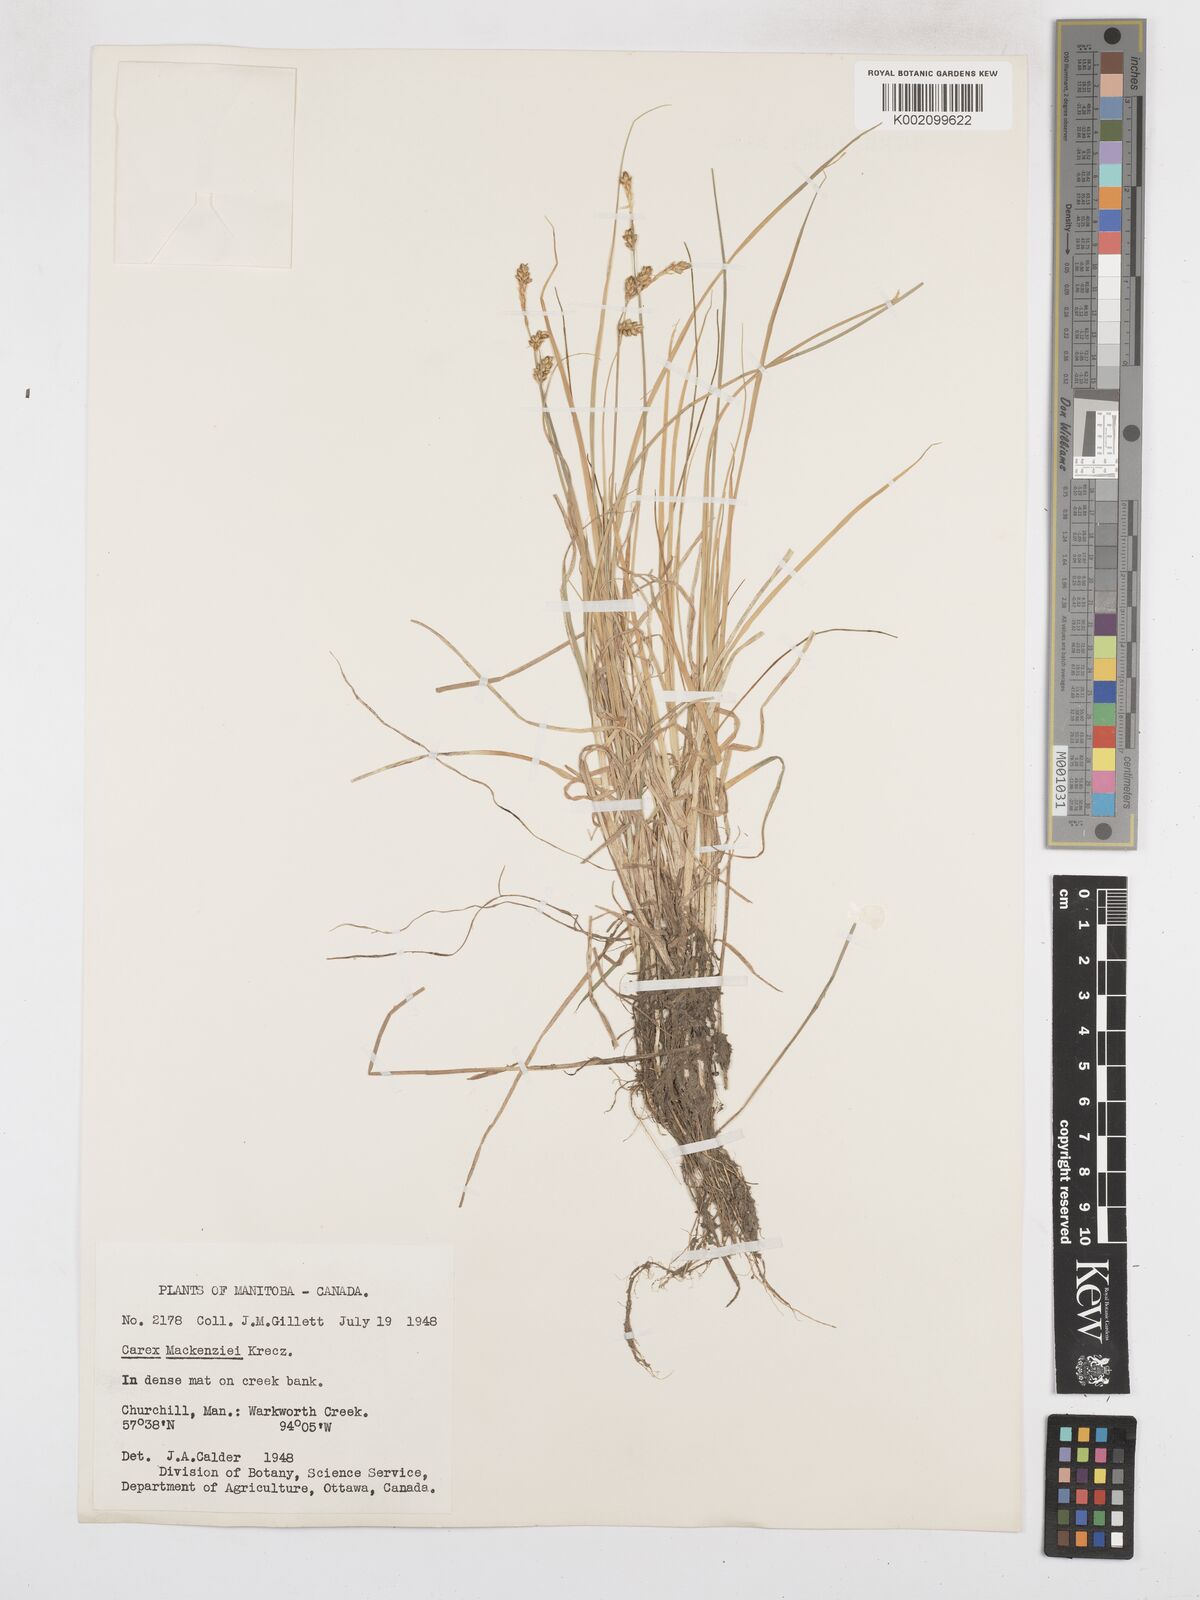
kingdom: Plantae
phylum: Tracheophyta
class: Liliopsida
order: Poales
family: Cyperaceae
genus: Carex
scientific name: Carex mackenziei
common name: Mackenzie's sedge
